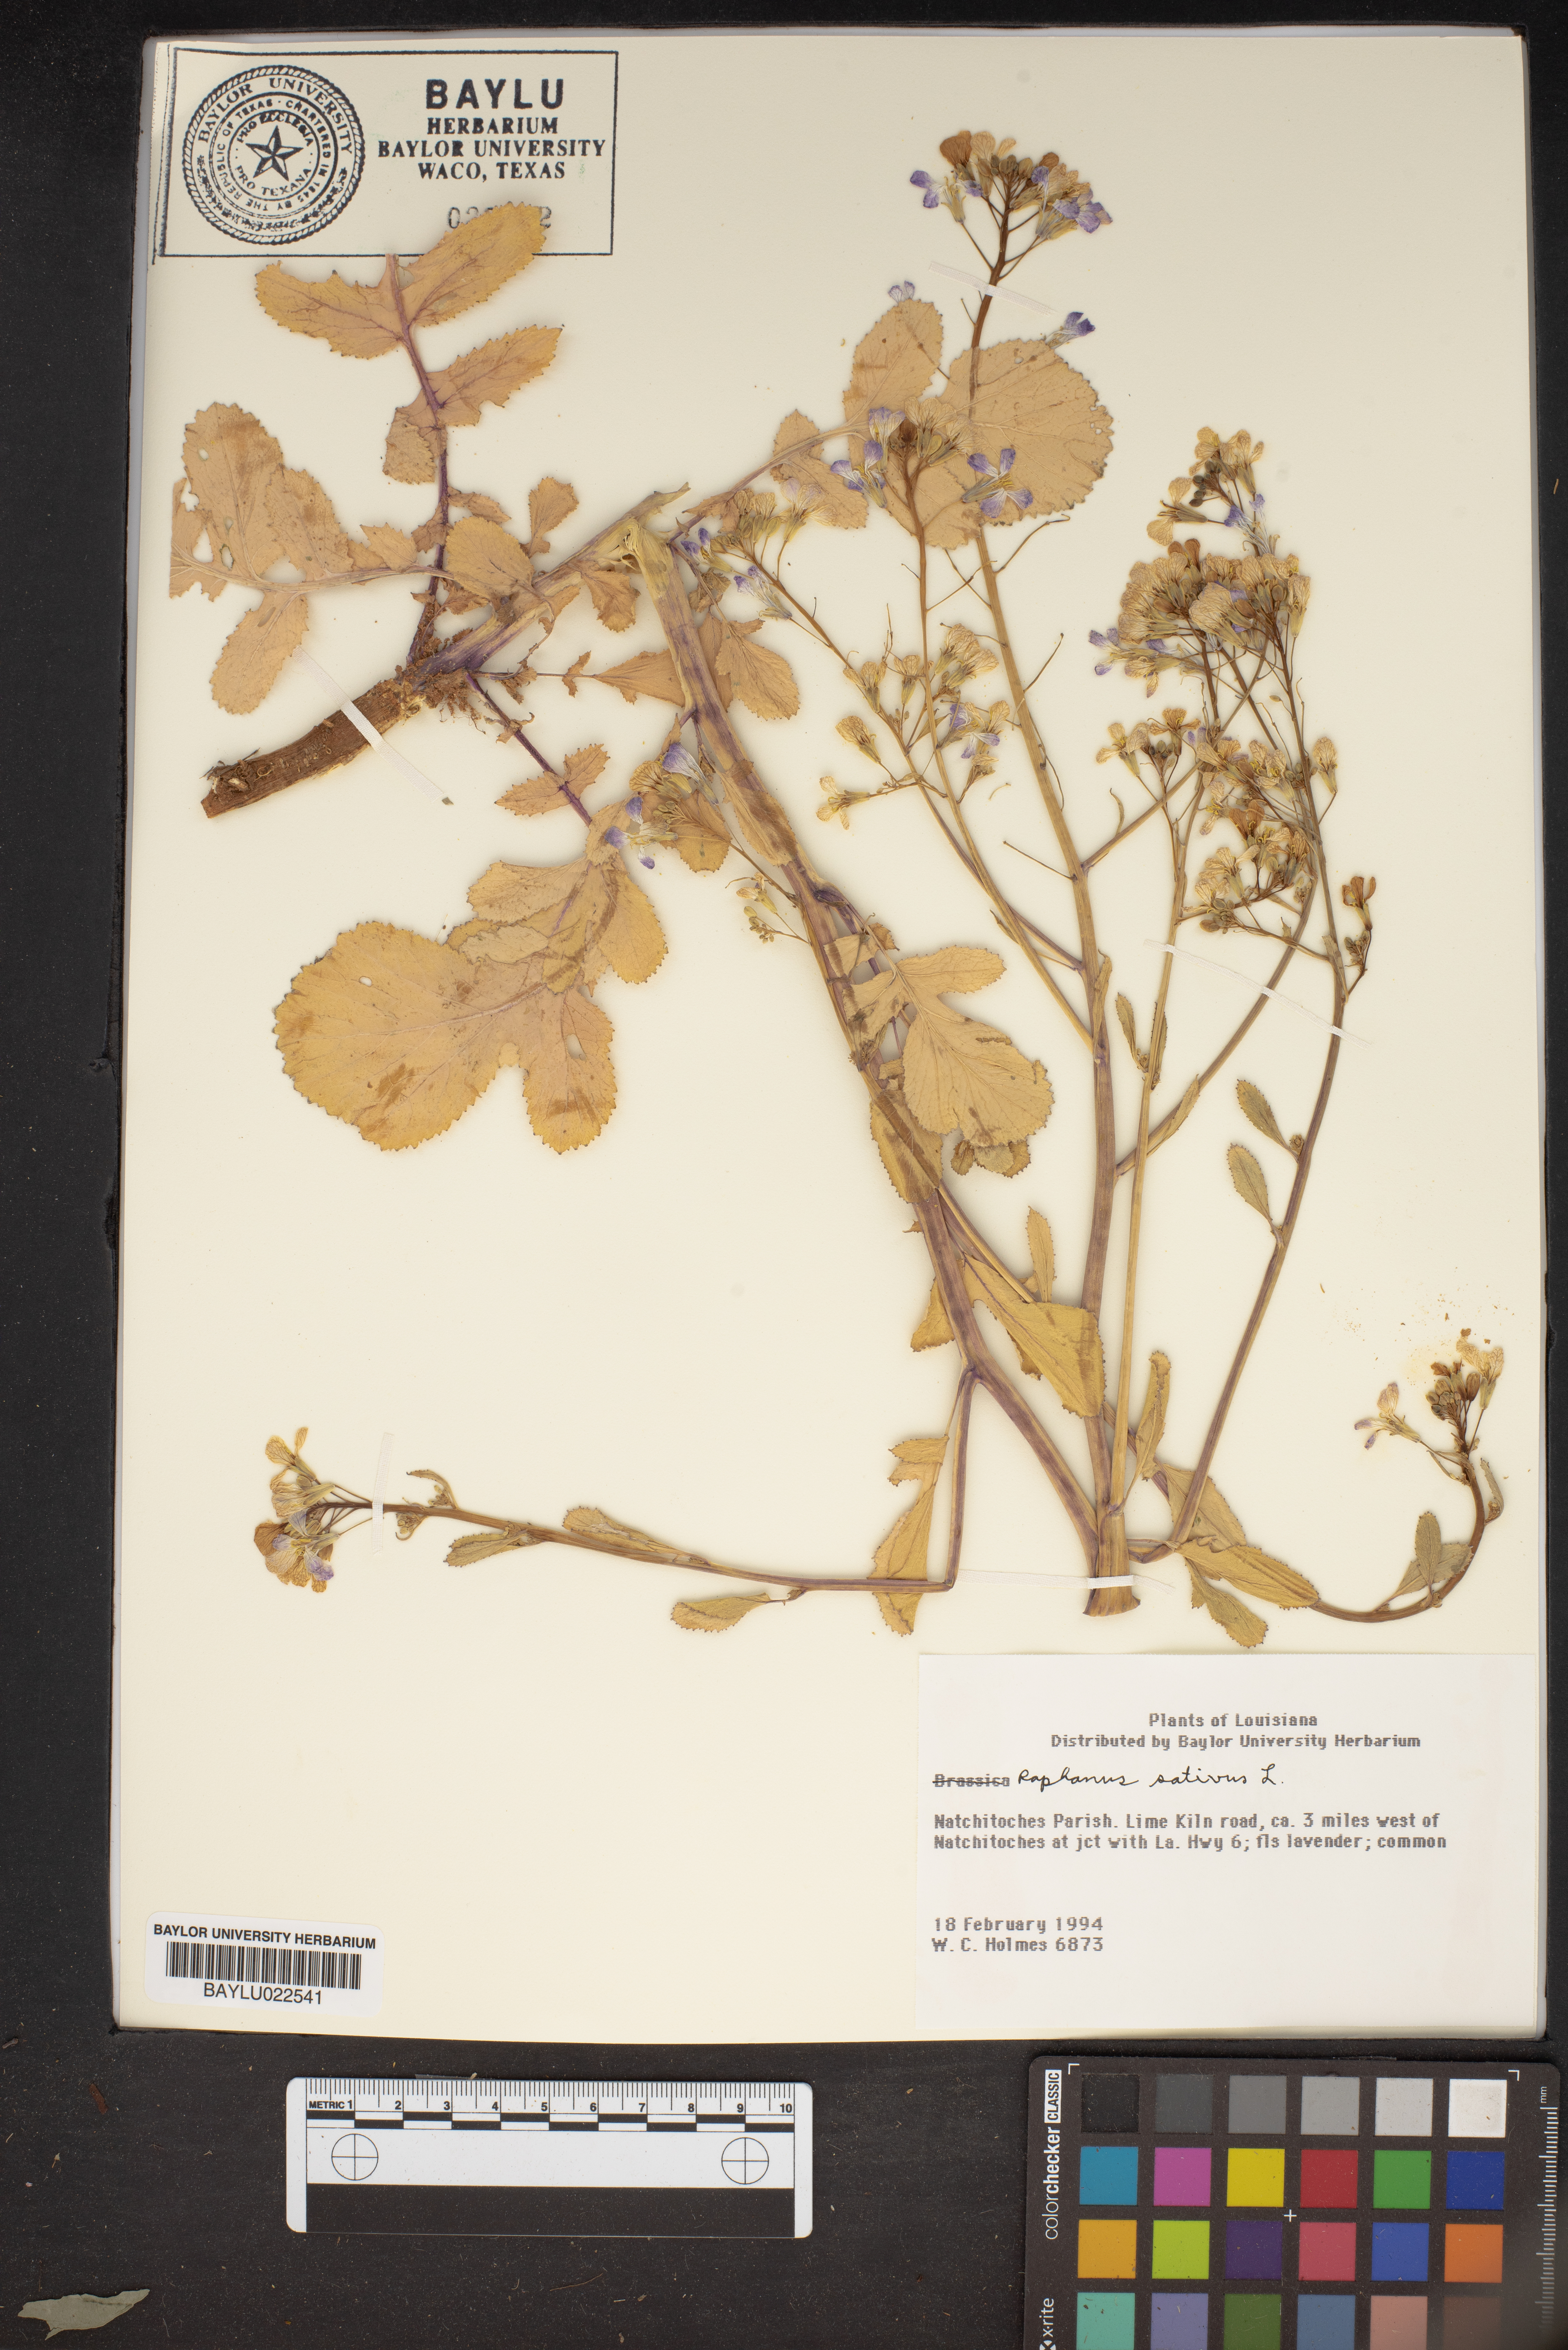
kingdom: Plantae
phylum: Tracheophyta
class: Magnoliopsida
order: Brassicales
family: Brassicaceae
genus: Raphanus
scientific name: Raphanus sativus
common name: Cultivated radish
